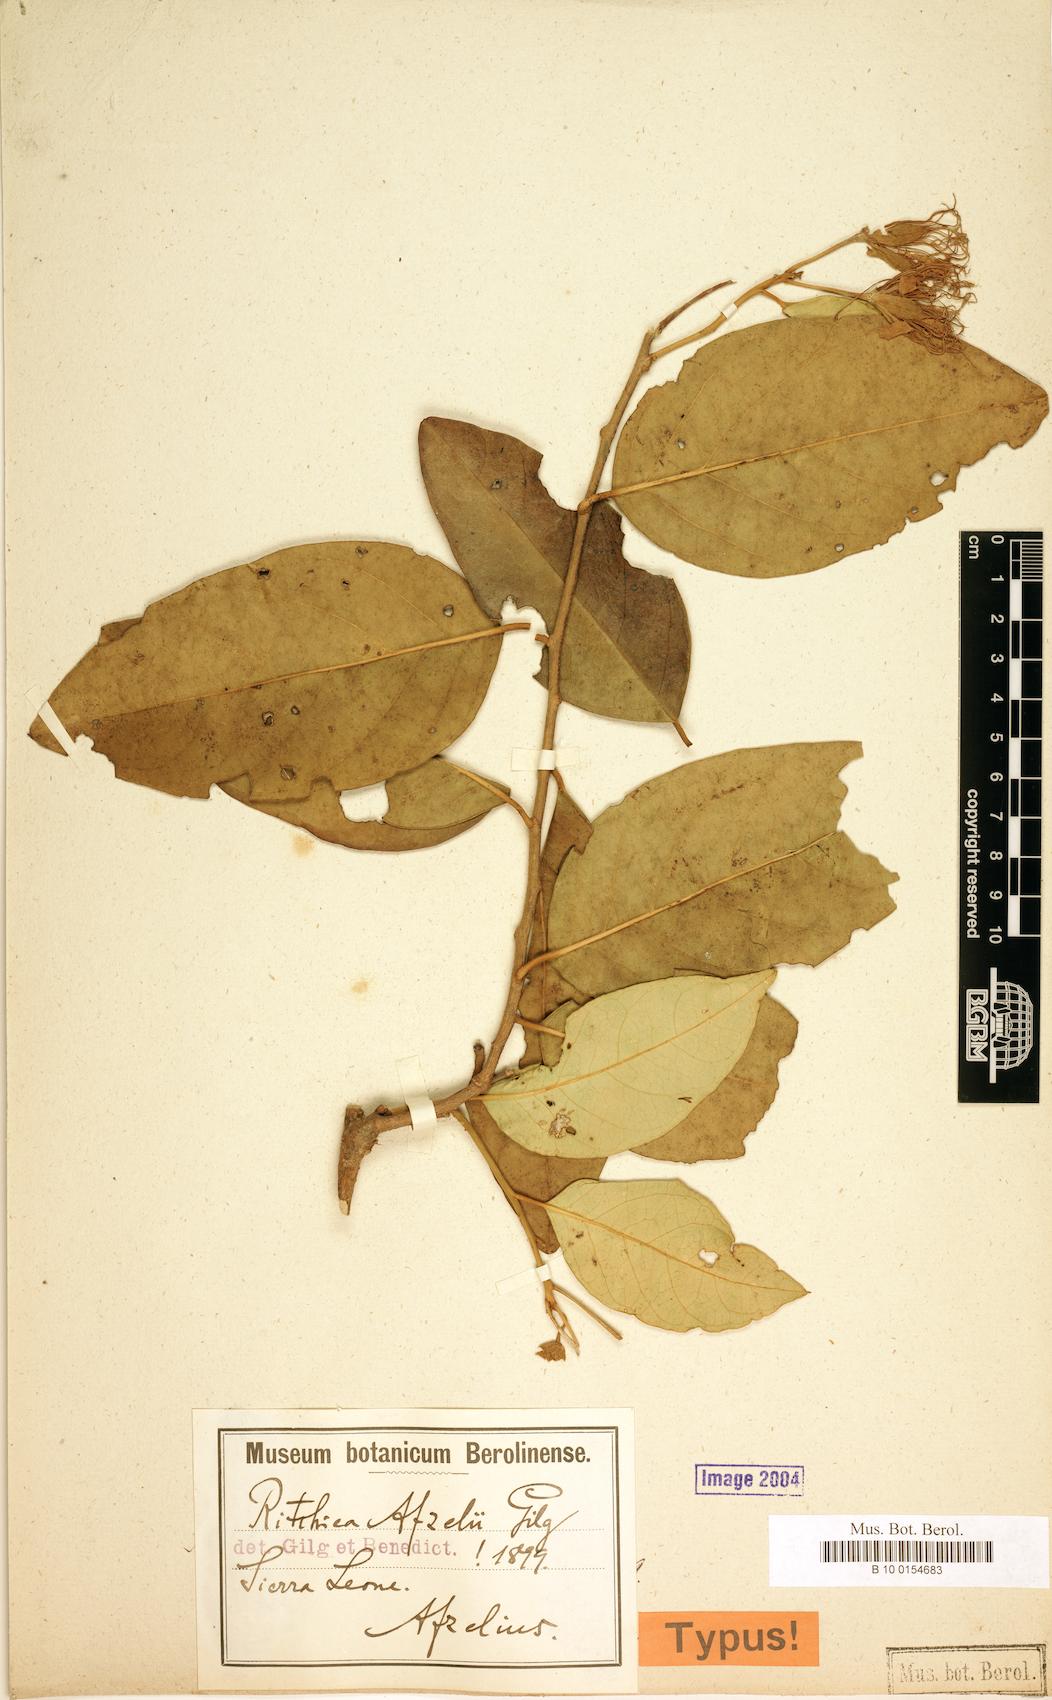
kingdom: Plantae
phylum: Tracheophyta
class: Magnoliopsida
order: Brassicales
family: Capparaceae
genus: Ritchiea
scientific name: Ritchiea afzelii
